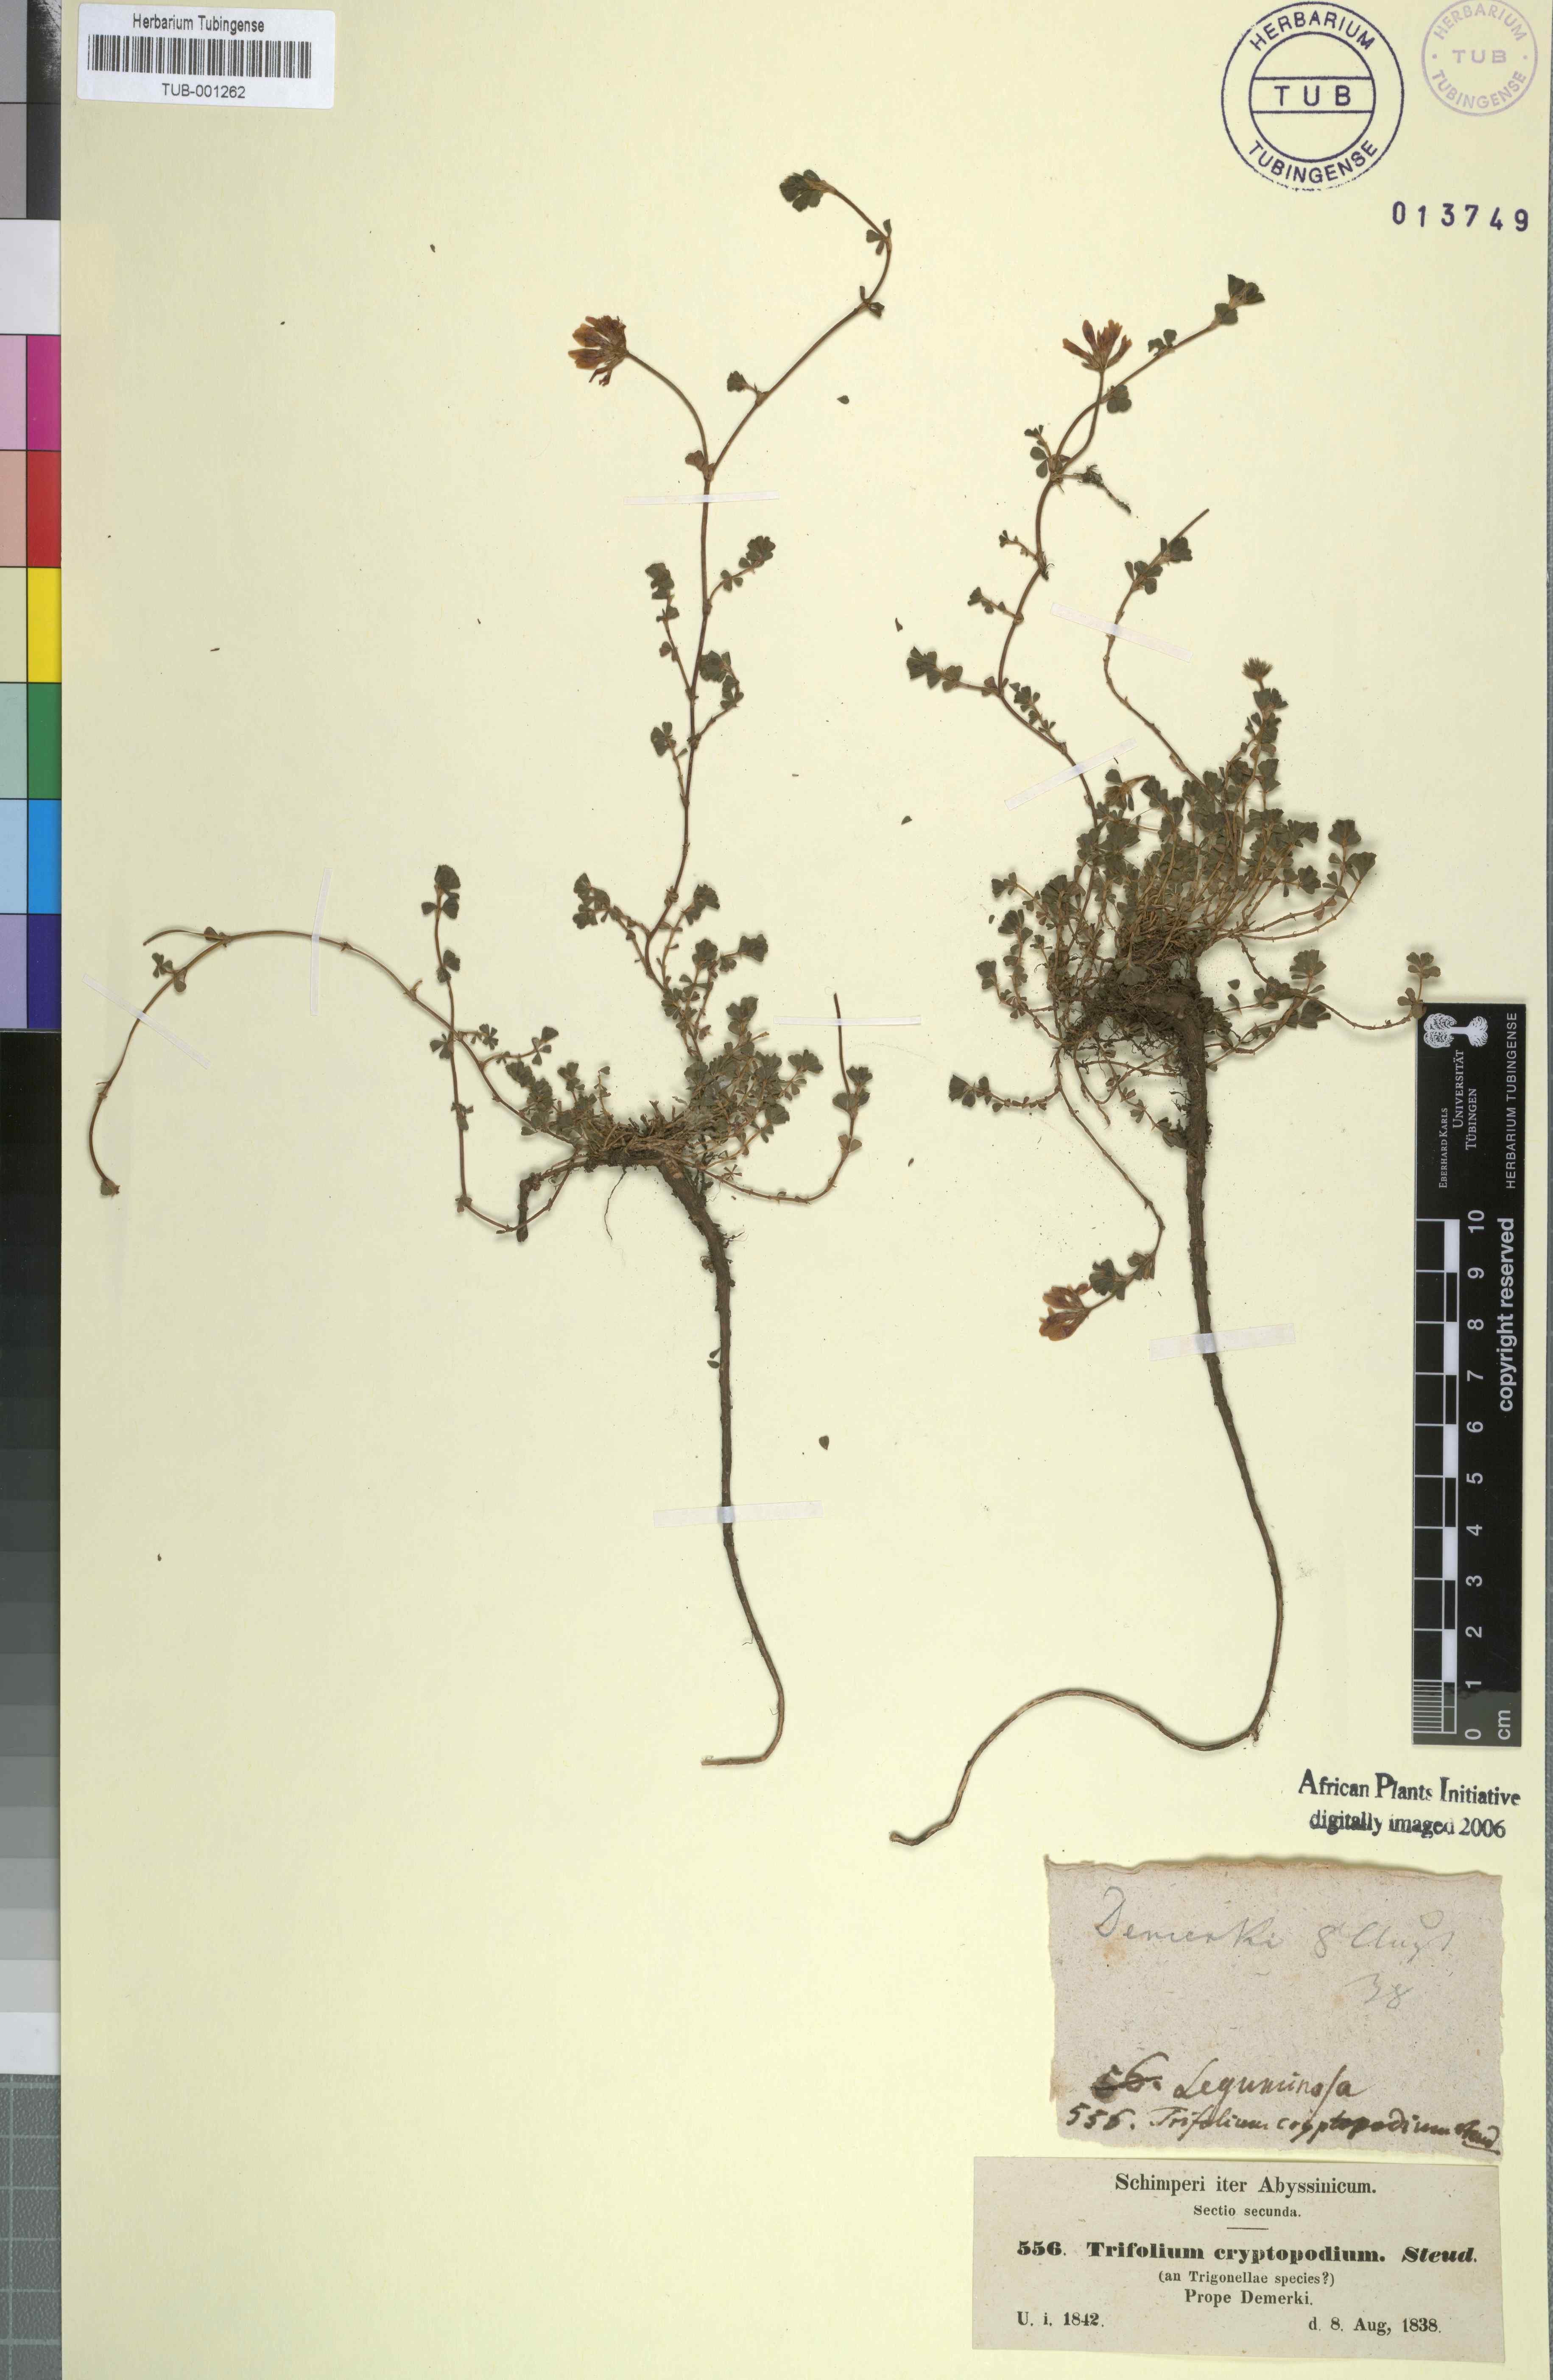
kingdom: Plantae
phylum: Tracheophyta
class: Magnoliopsida
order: Fabales
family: Fabaceae
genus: Trifolium
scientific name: Trifolium cryptopodium
